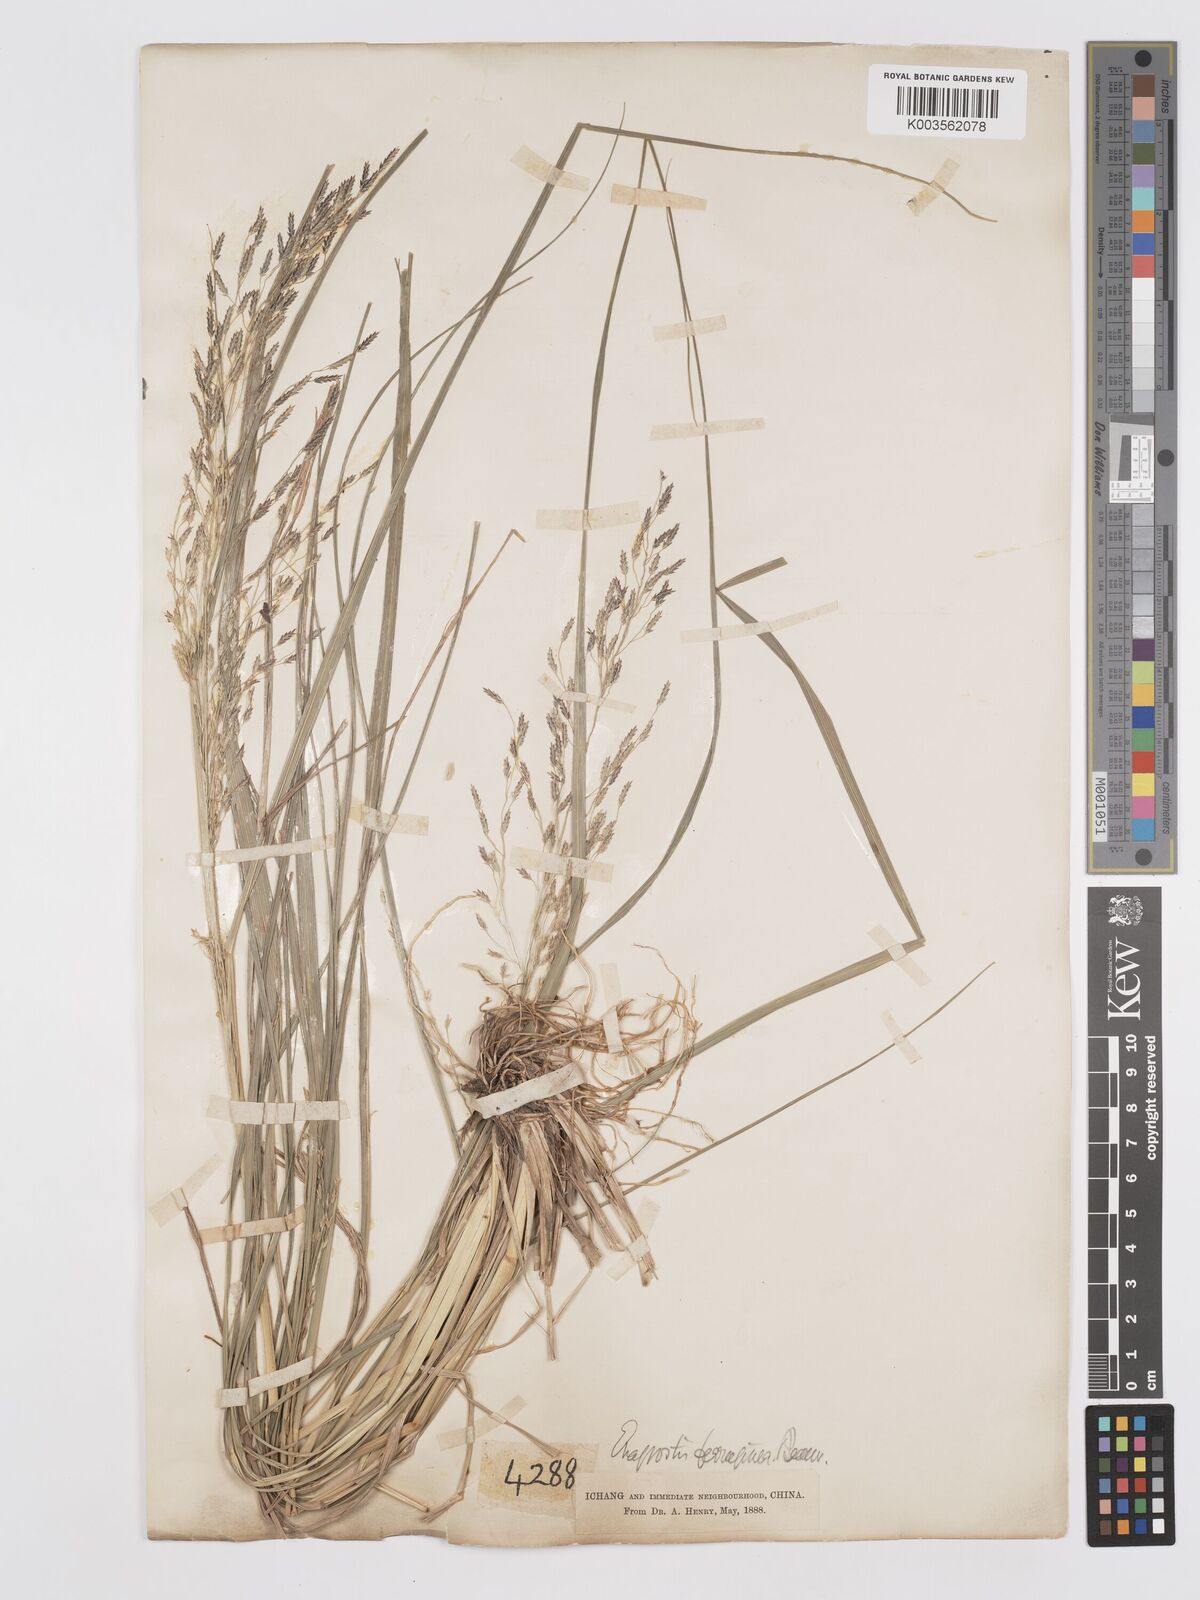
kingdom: Plantae
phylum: Tracheophyta
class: Liliopsida
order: Poales
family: Poaceae
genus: Eragrostis
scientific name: Eragrostis ferruginea
